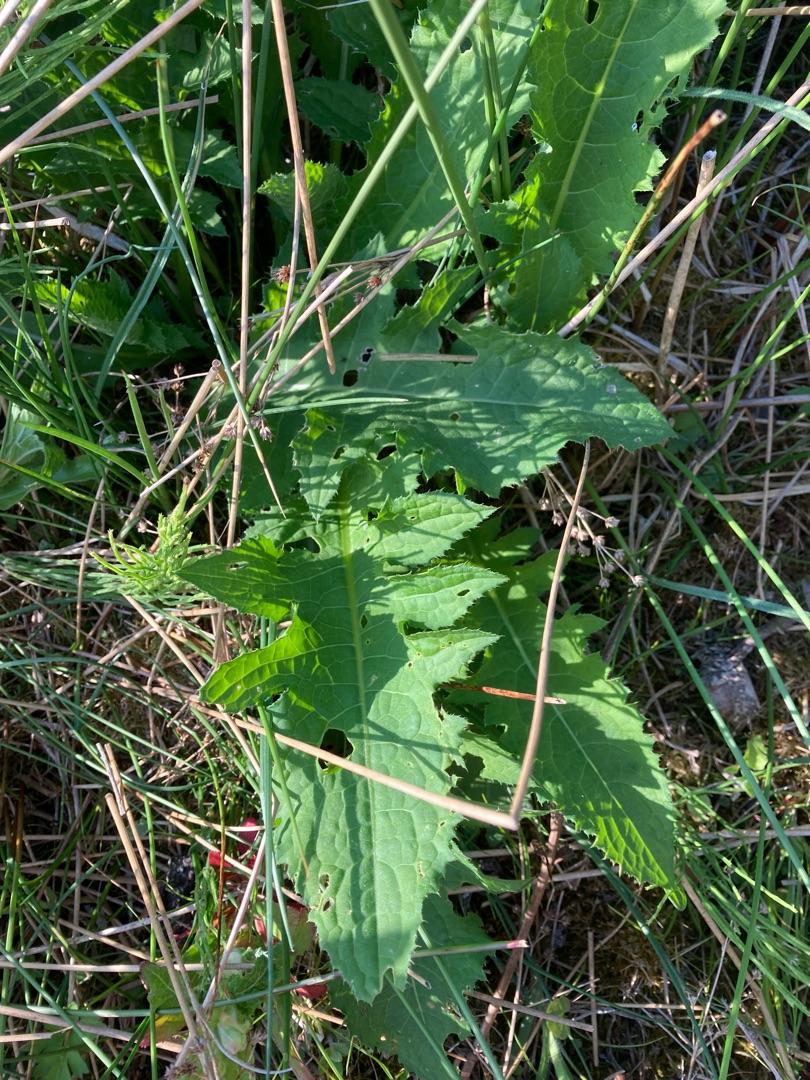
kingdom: Plantae
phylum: Tracheophyta
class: Magnoliopsida
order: Asterales
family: Asteraceae
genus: Cirsium
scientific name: Cirsium oleraceum
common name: Kål-tidsel
